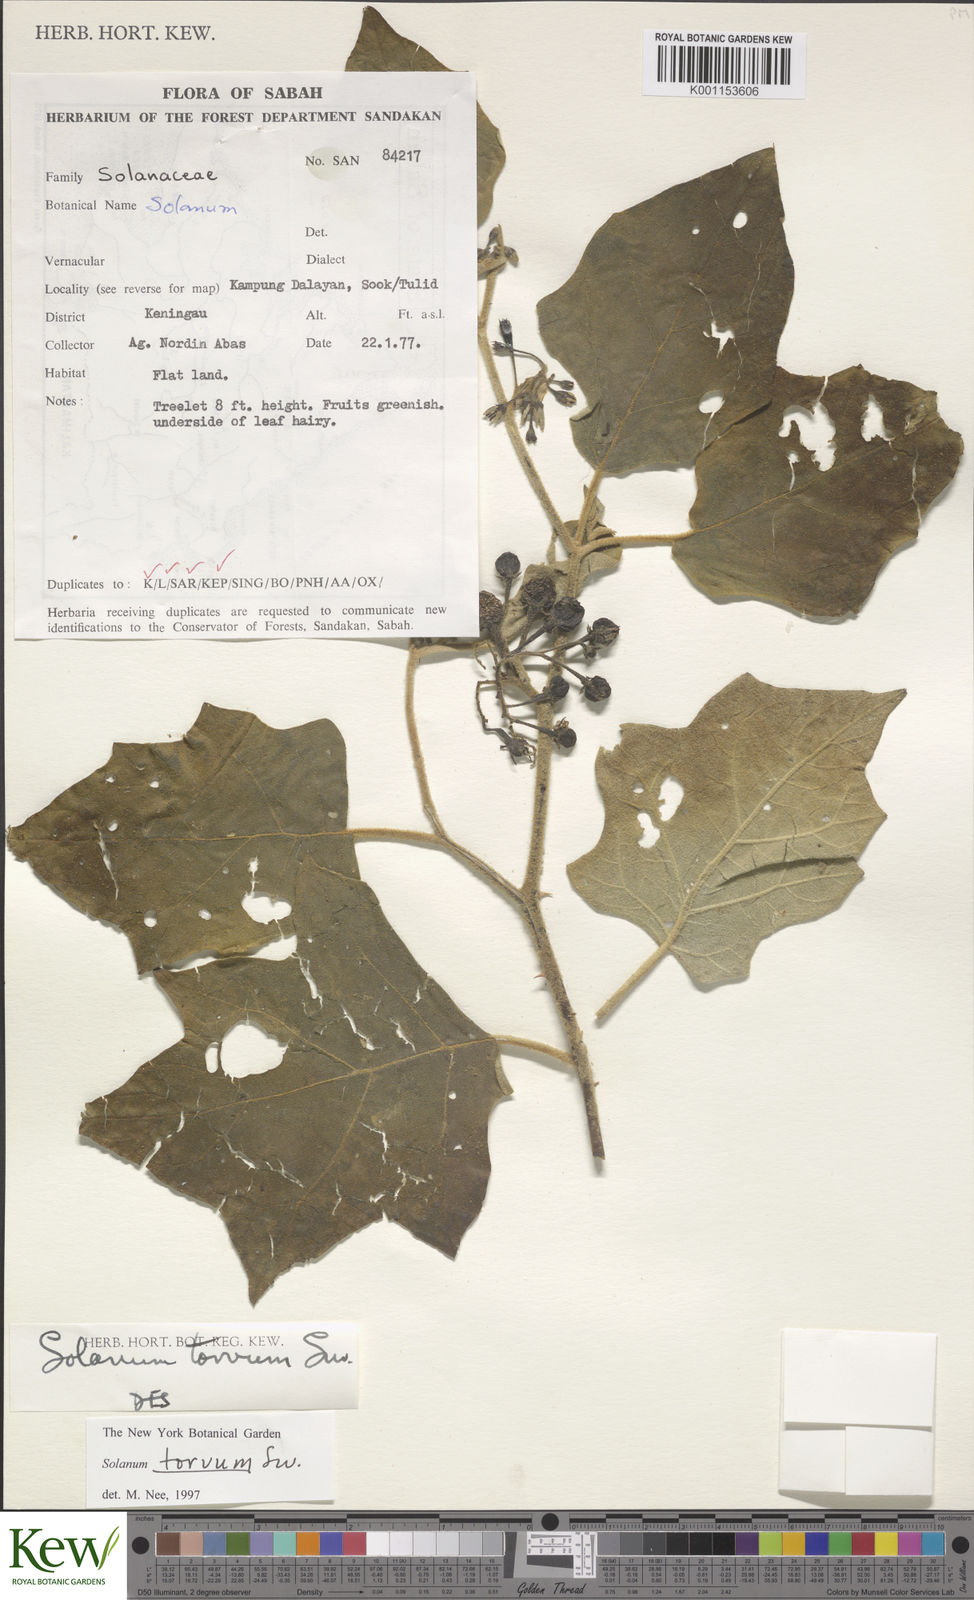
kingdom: Plantae
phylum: Tracheophyta
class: Magnoliopsida
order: Solanales
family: Solanaceae
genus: Solanum
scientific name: Solanum torvum
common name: Turkey berry
